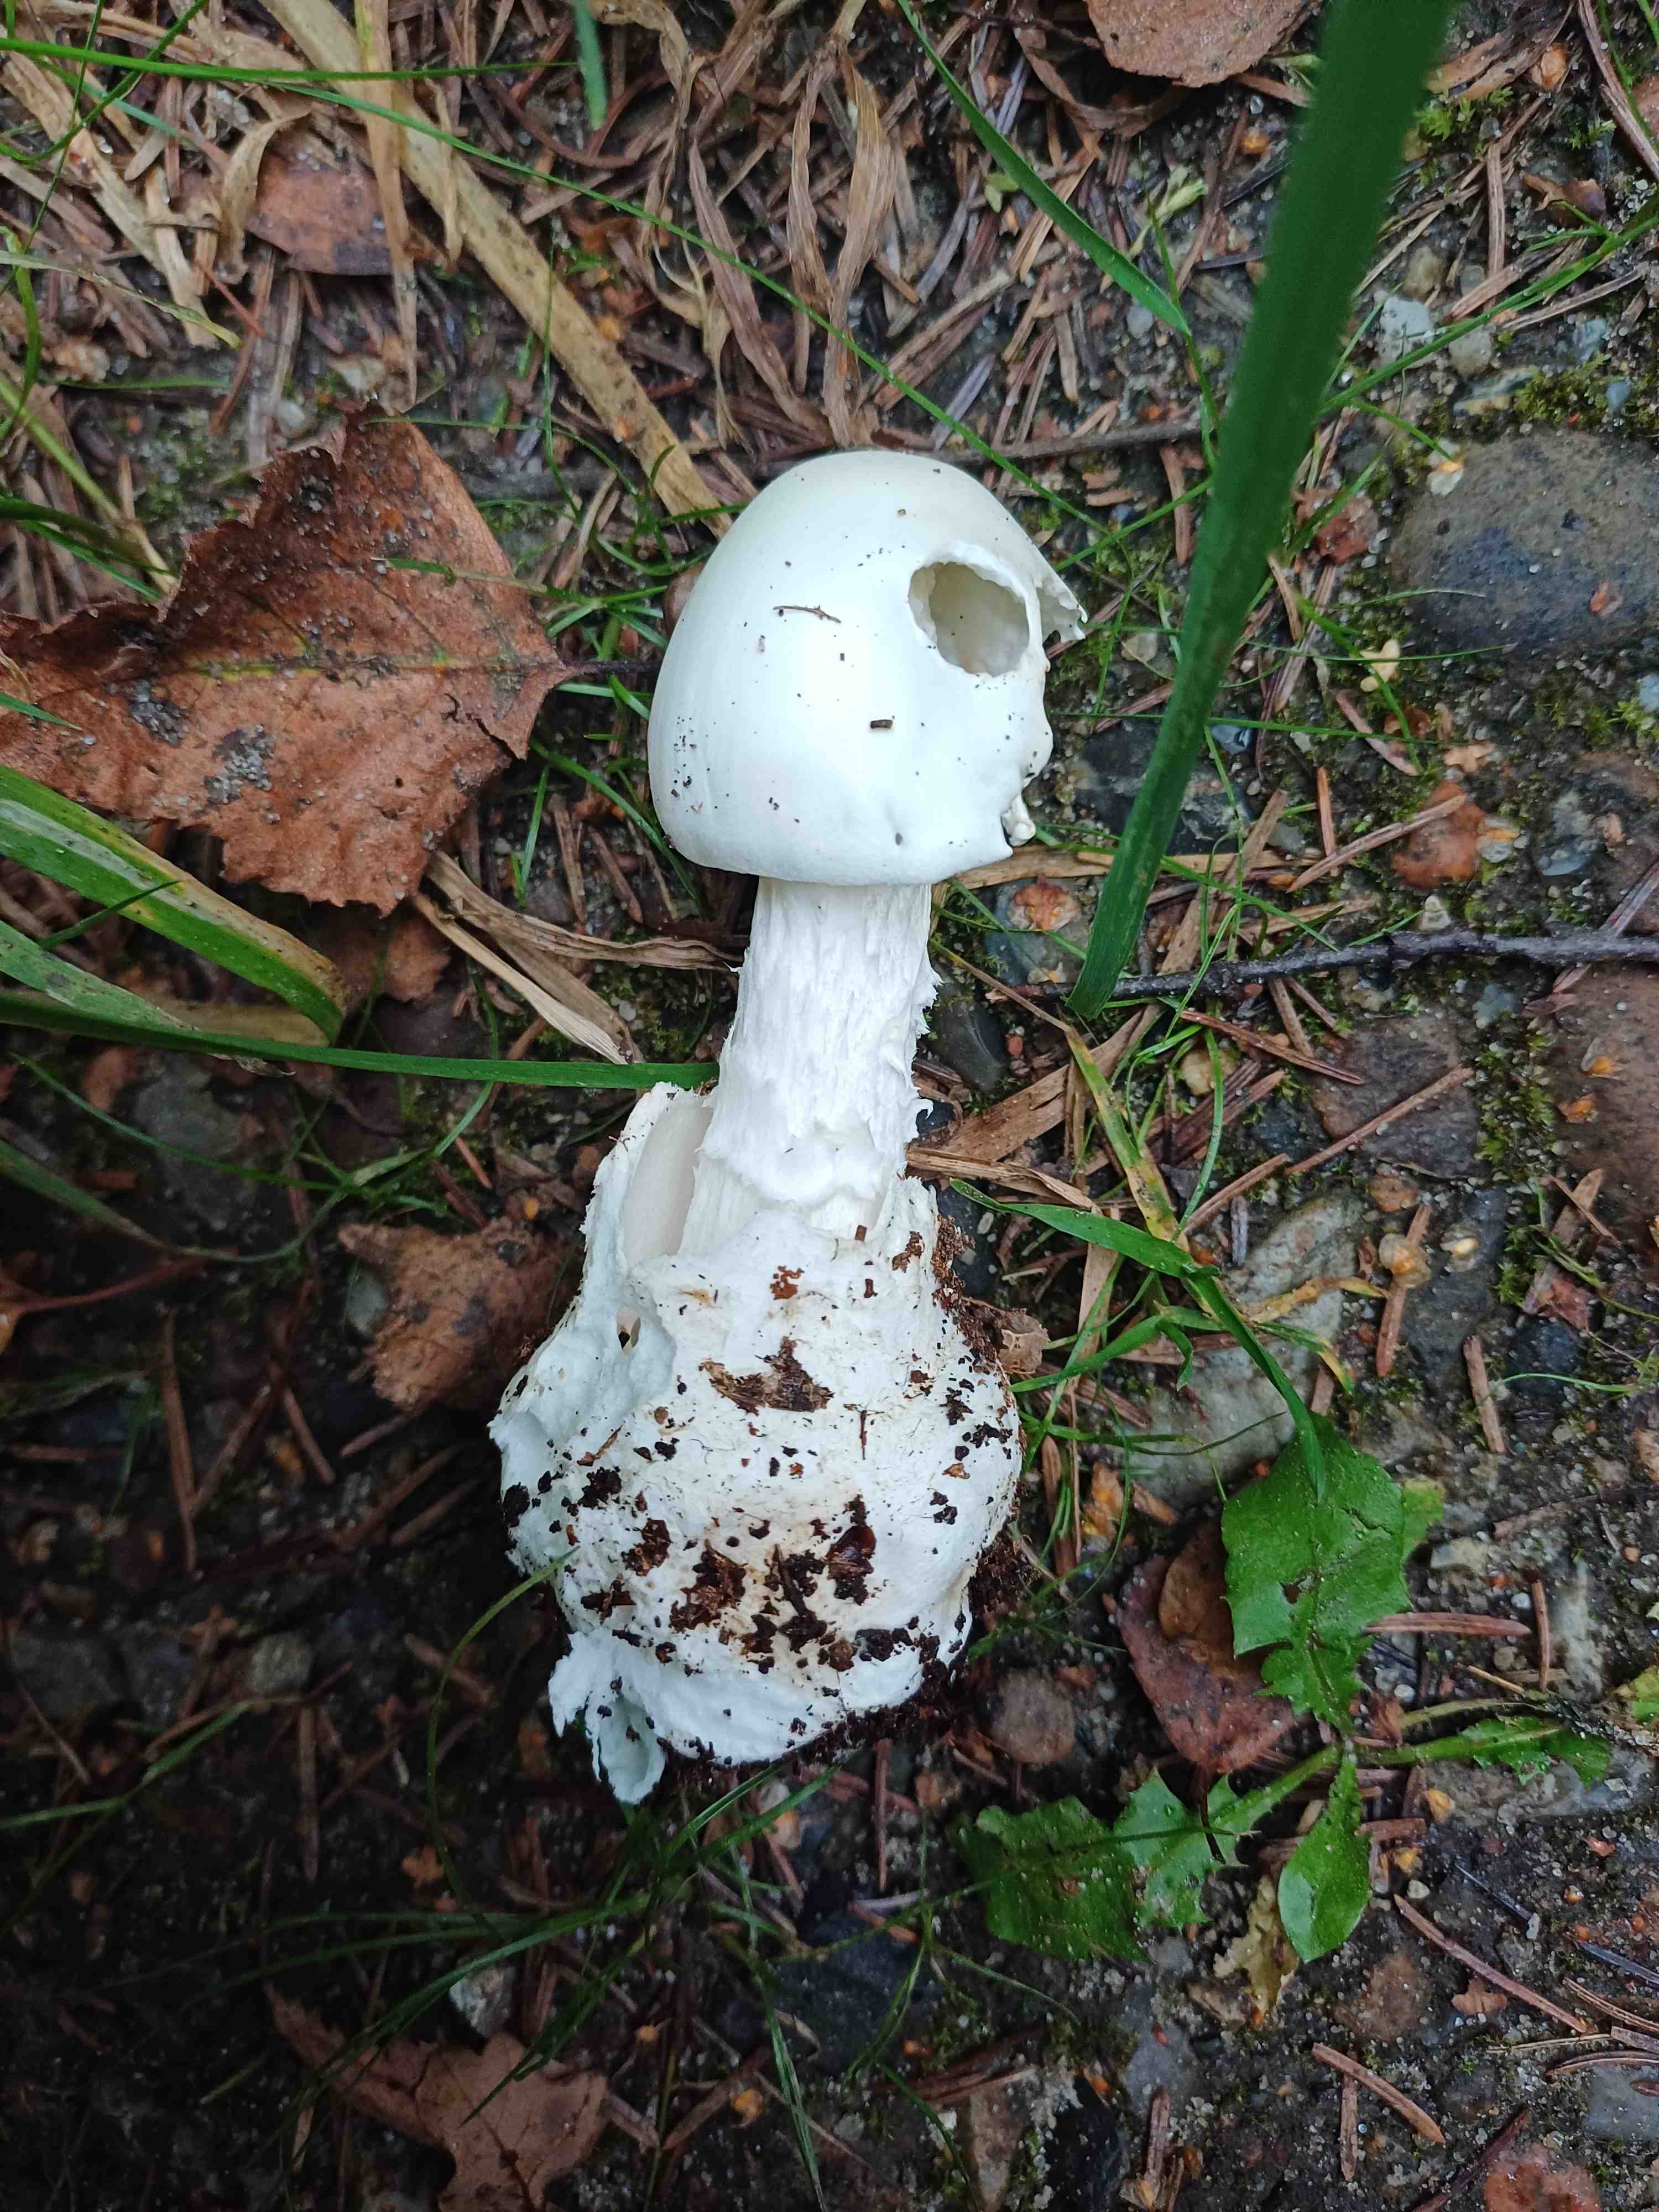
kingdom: Fungi
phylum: Basidiomycota
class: Agaricomycetes
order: Agaricales
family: Amanitaceae
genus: Amanita
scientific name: Amanita virosa
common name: snehvid fluesvamp
